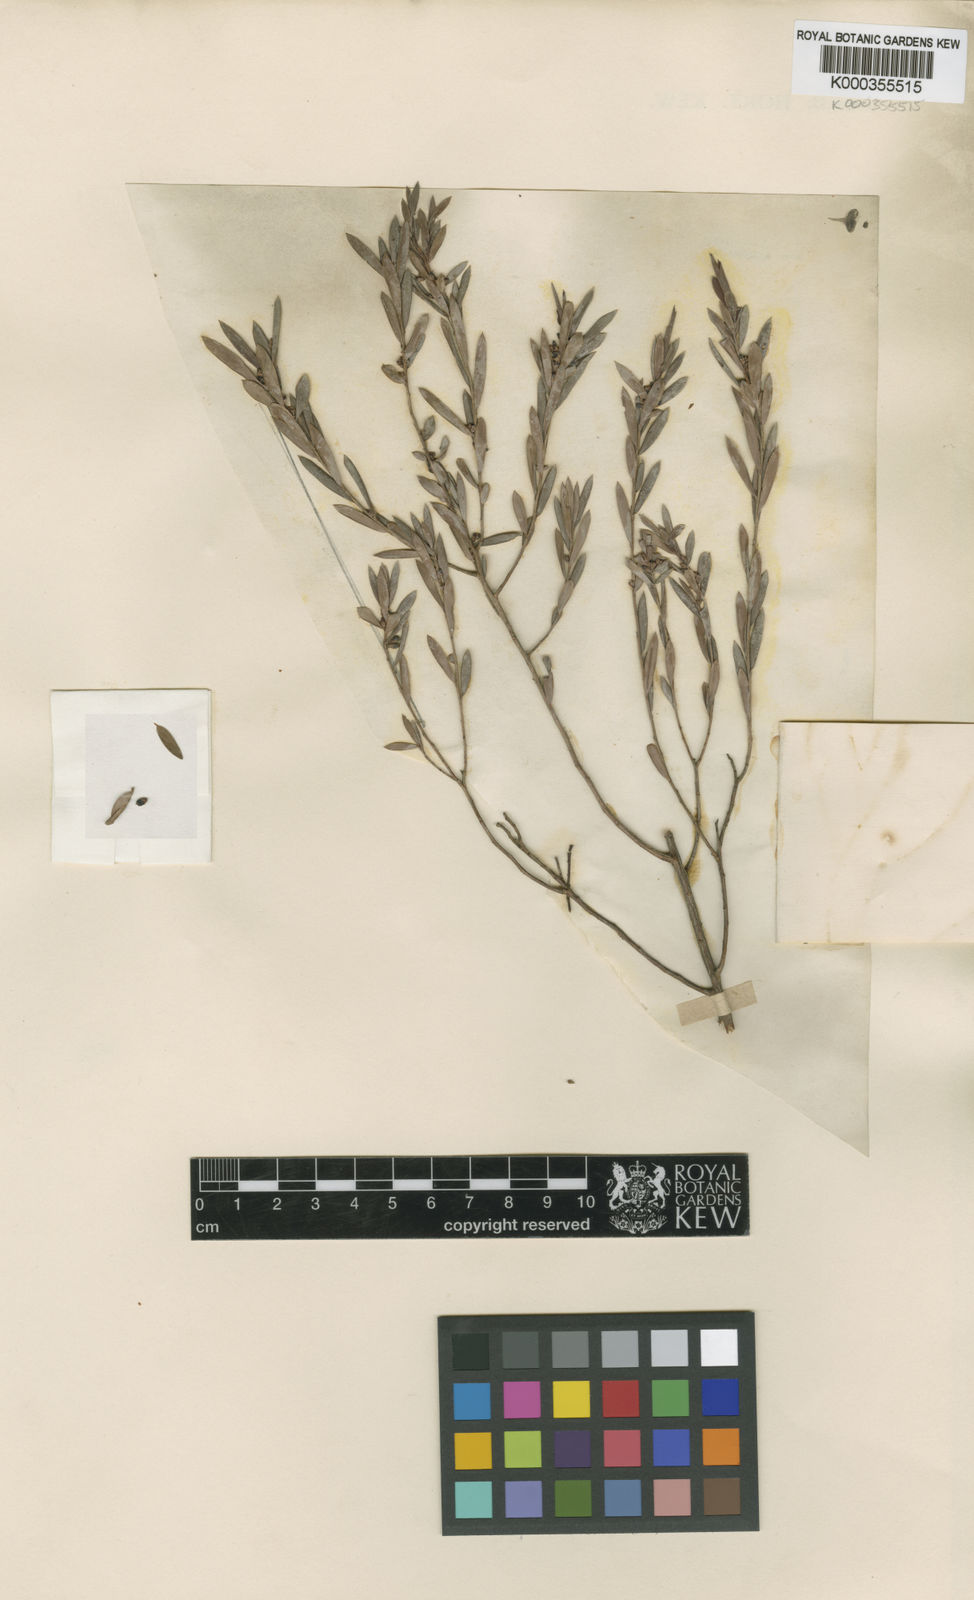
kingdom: Plantae
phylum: Tracheophyta
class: Magnoliopsida
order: Ericales
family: Ericaceae
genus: Monotoca
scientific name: Monotoca glauca
